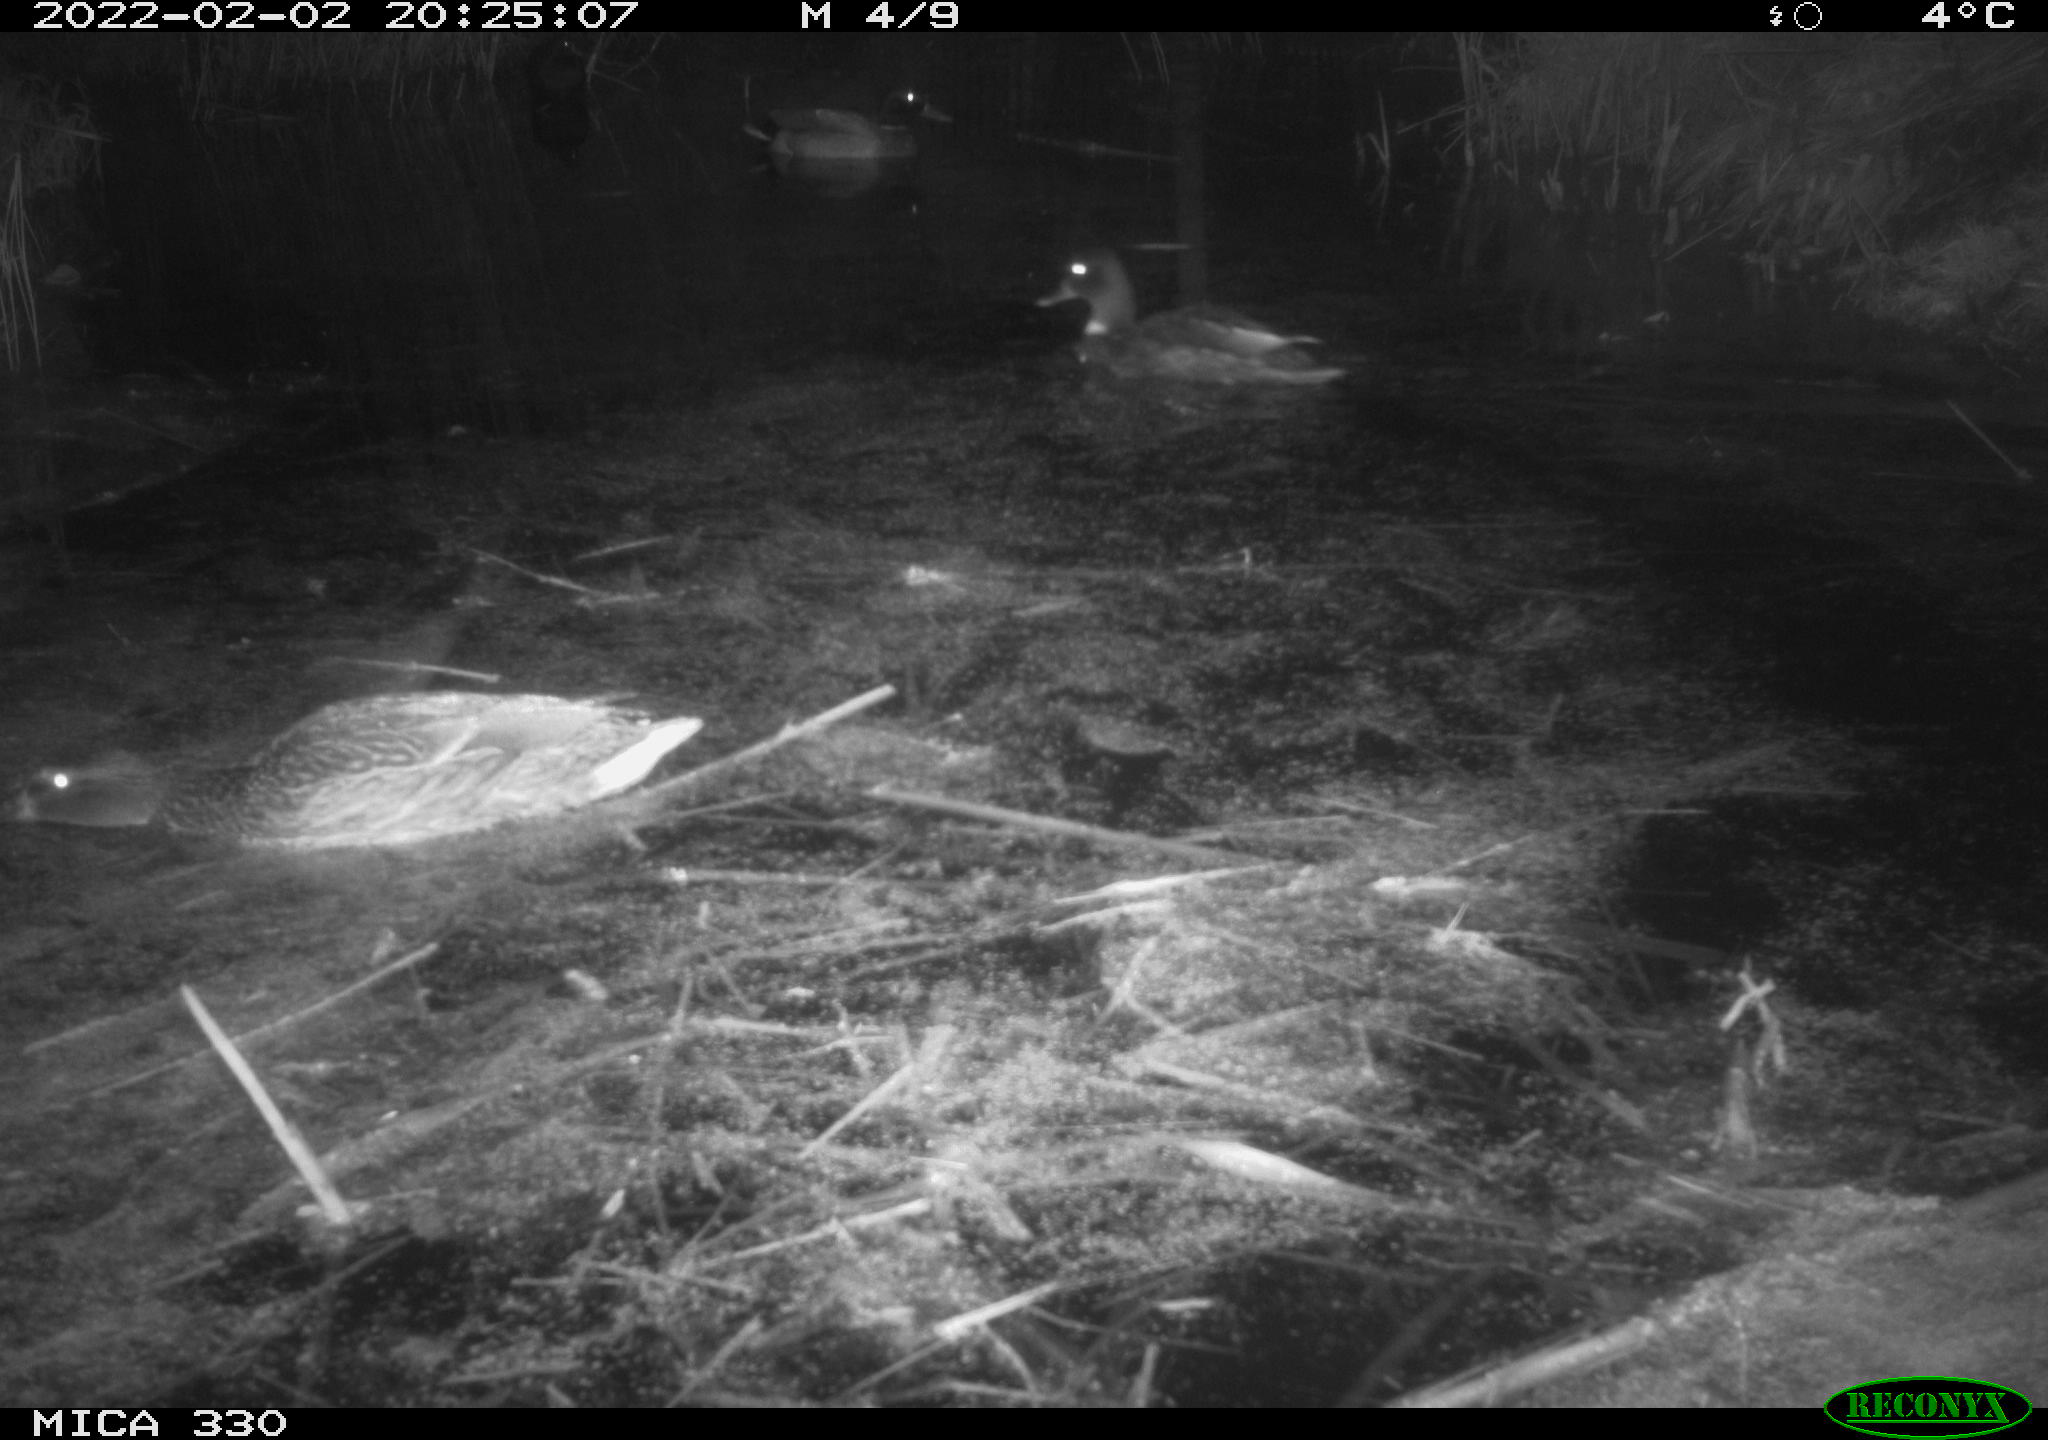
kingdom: Animalia
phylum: Chordata
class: Aves
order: Anseriformes
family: Anatidae
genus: Anas
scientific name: Anas platyrhynchos
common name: Mallard
